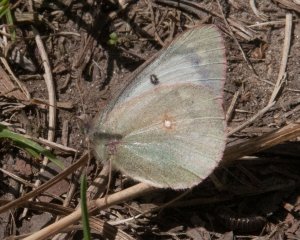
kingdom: Animalia
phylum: Arthropoda
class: Insecta
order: Lepidoptera
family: Pieridae
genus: Colias
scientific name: Colias philodice
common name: Clouded Sulphur
